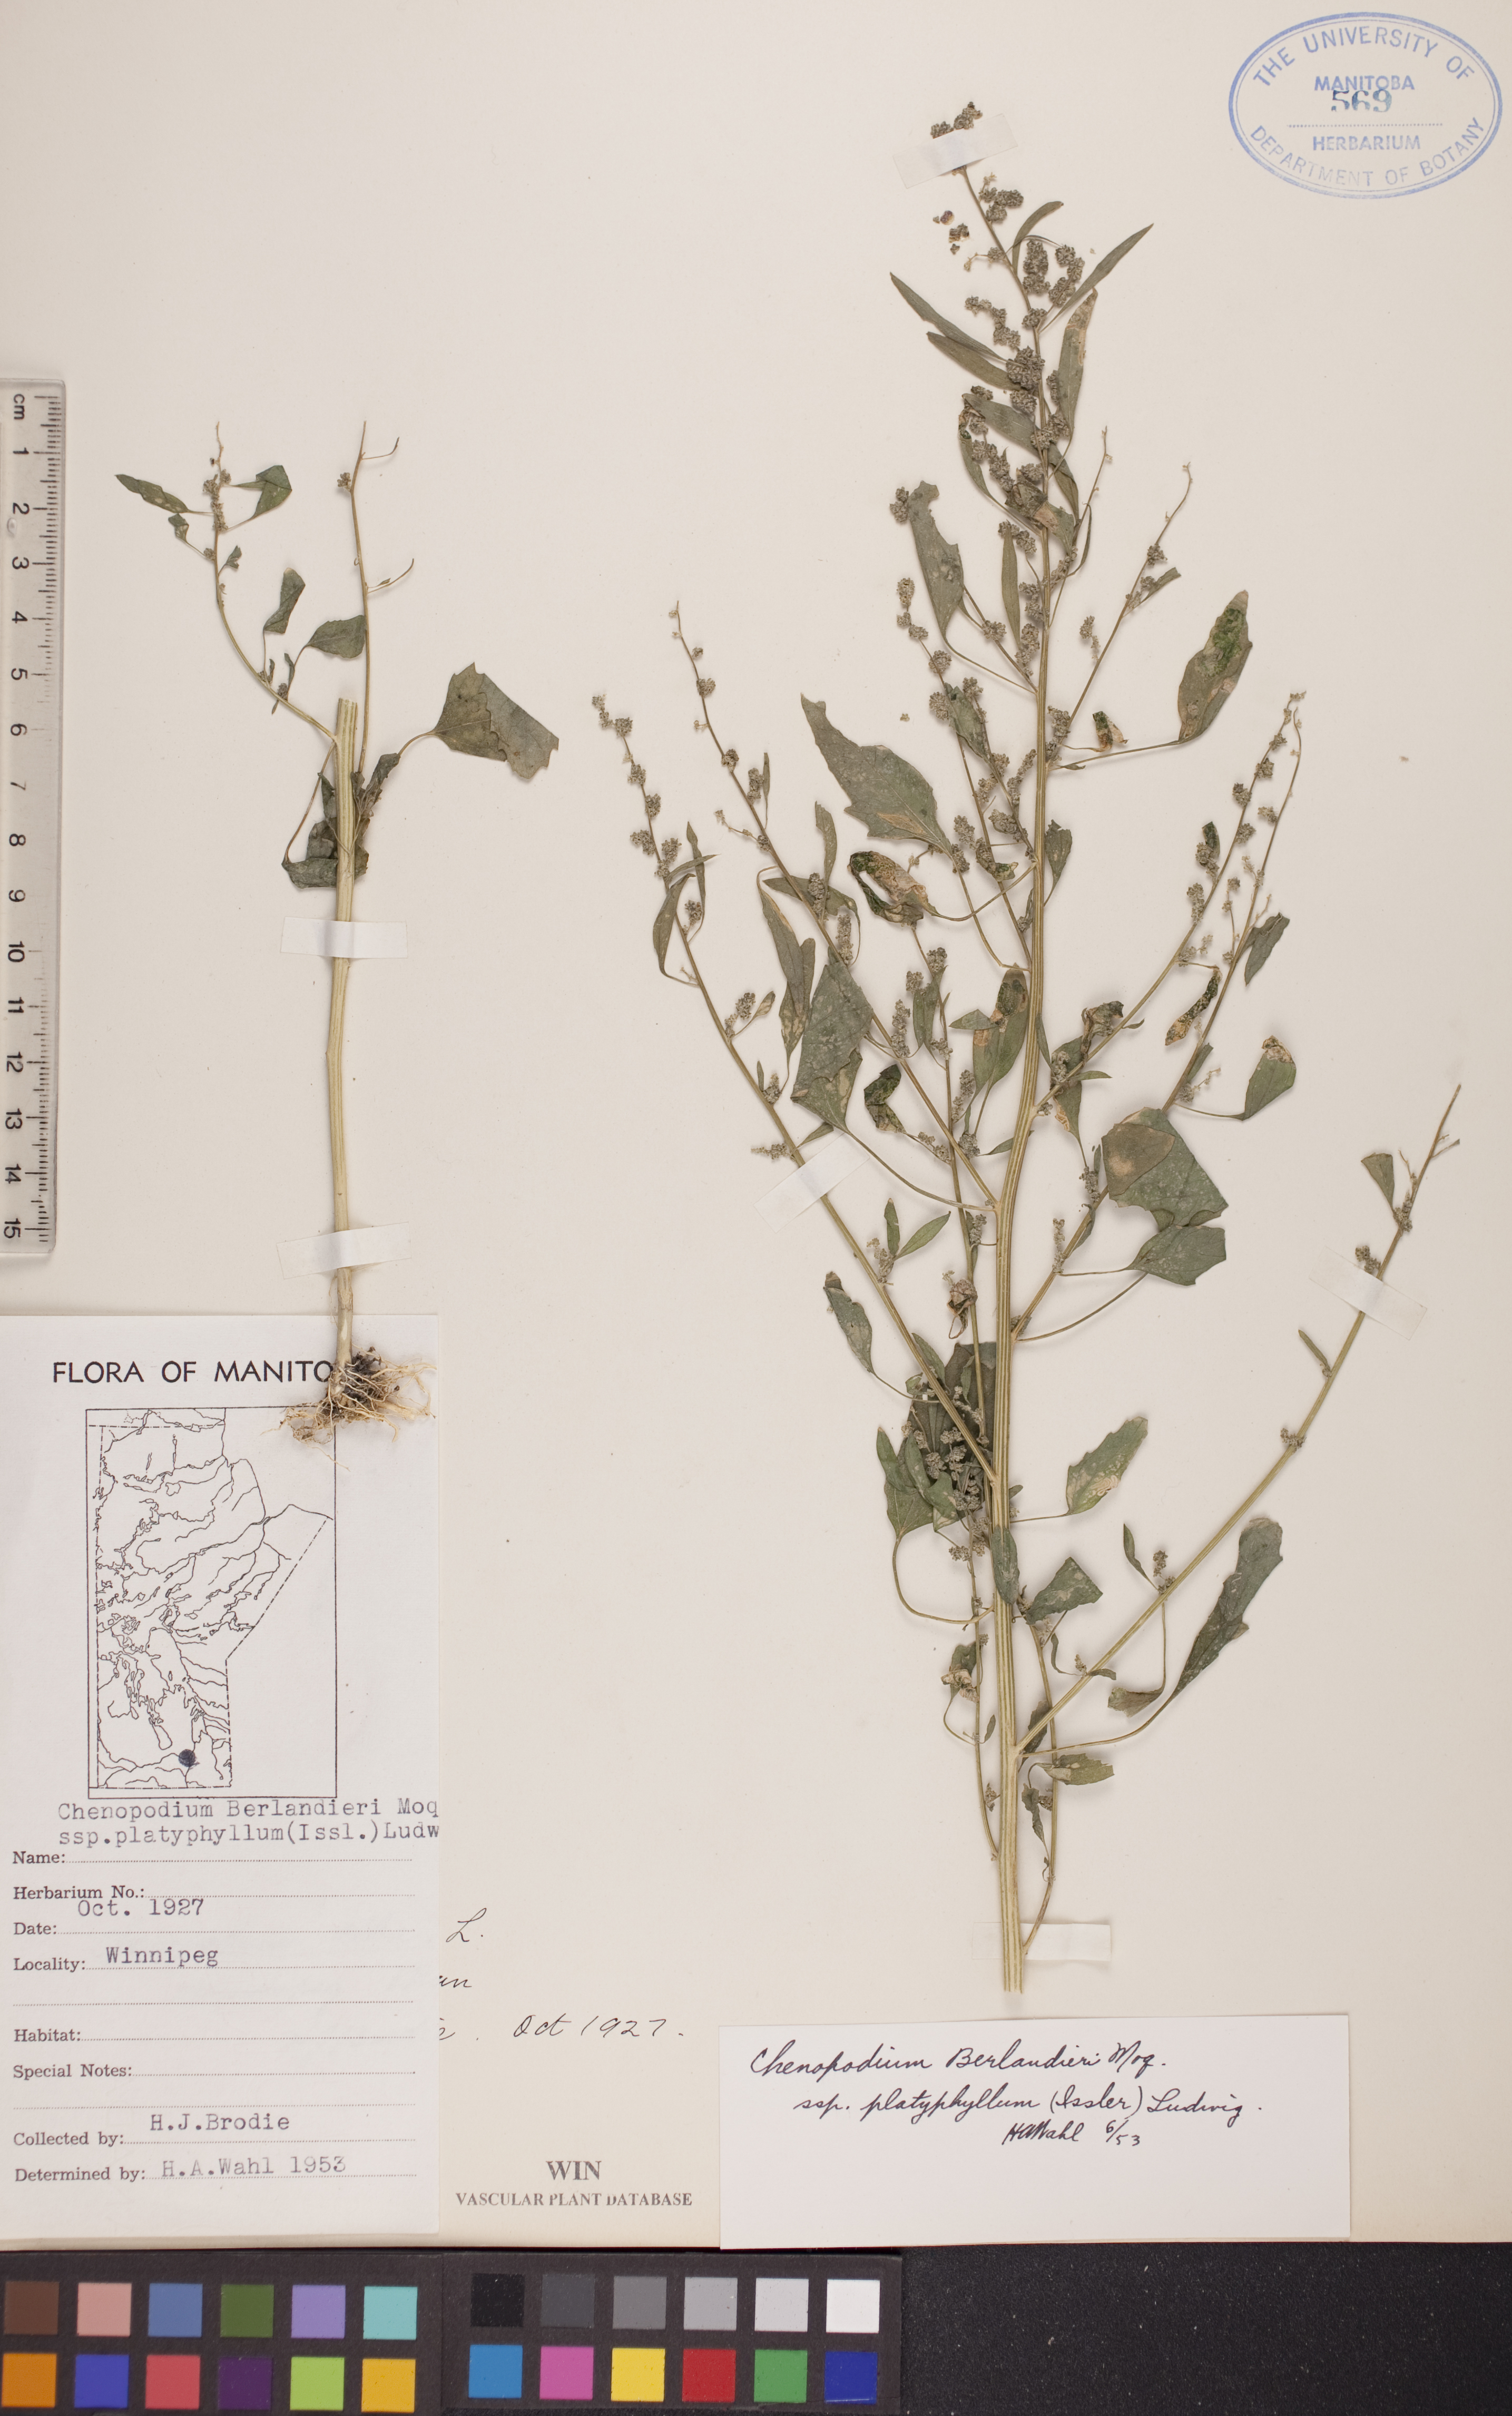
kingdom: Plantae
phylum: Tracheophyta
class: Magnoliopsida
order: Caryophyllales
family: Amaranthaceae
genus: Chenopodium
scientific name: Chenopodium berlandieri
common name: Pit-seed goosefoot
